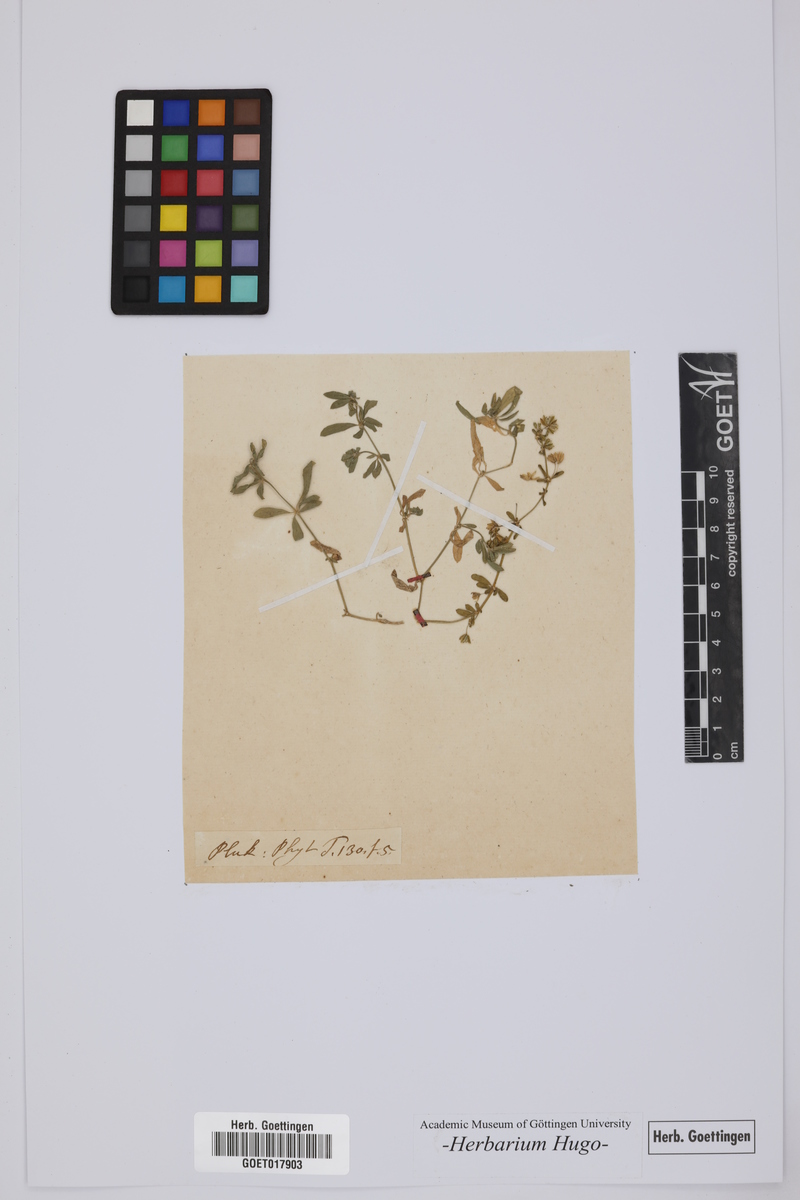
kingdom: Plantae
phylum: Tracheophyta
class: Magnoliopsida
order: Caryophyllales
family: Caryophyllaceae
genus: Alsine
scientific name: Alsine
